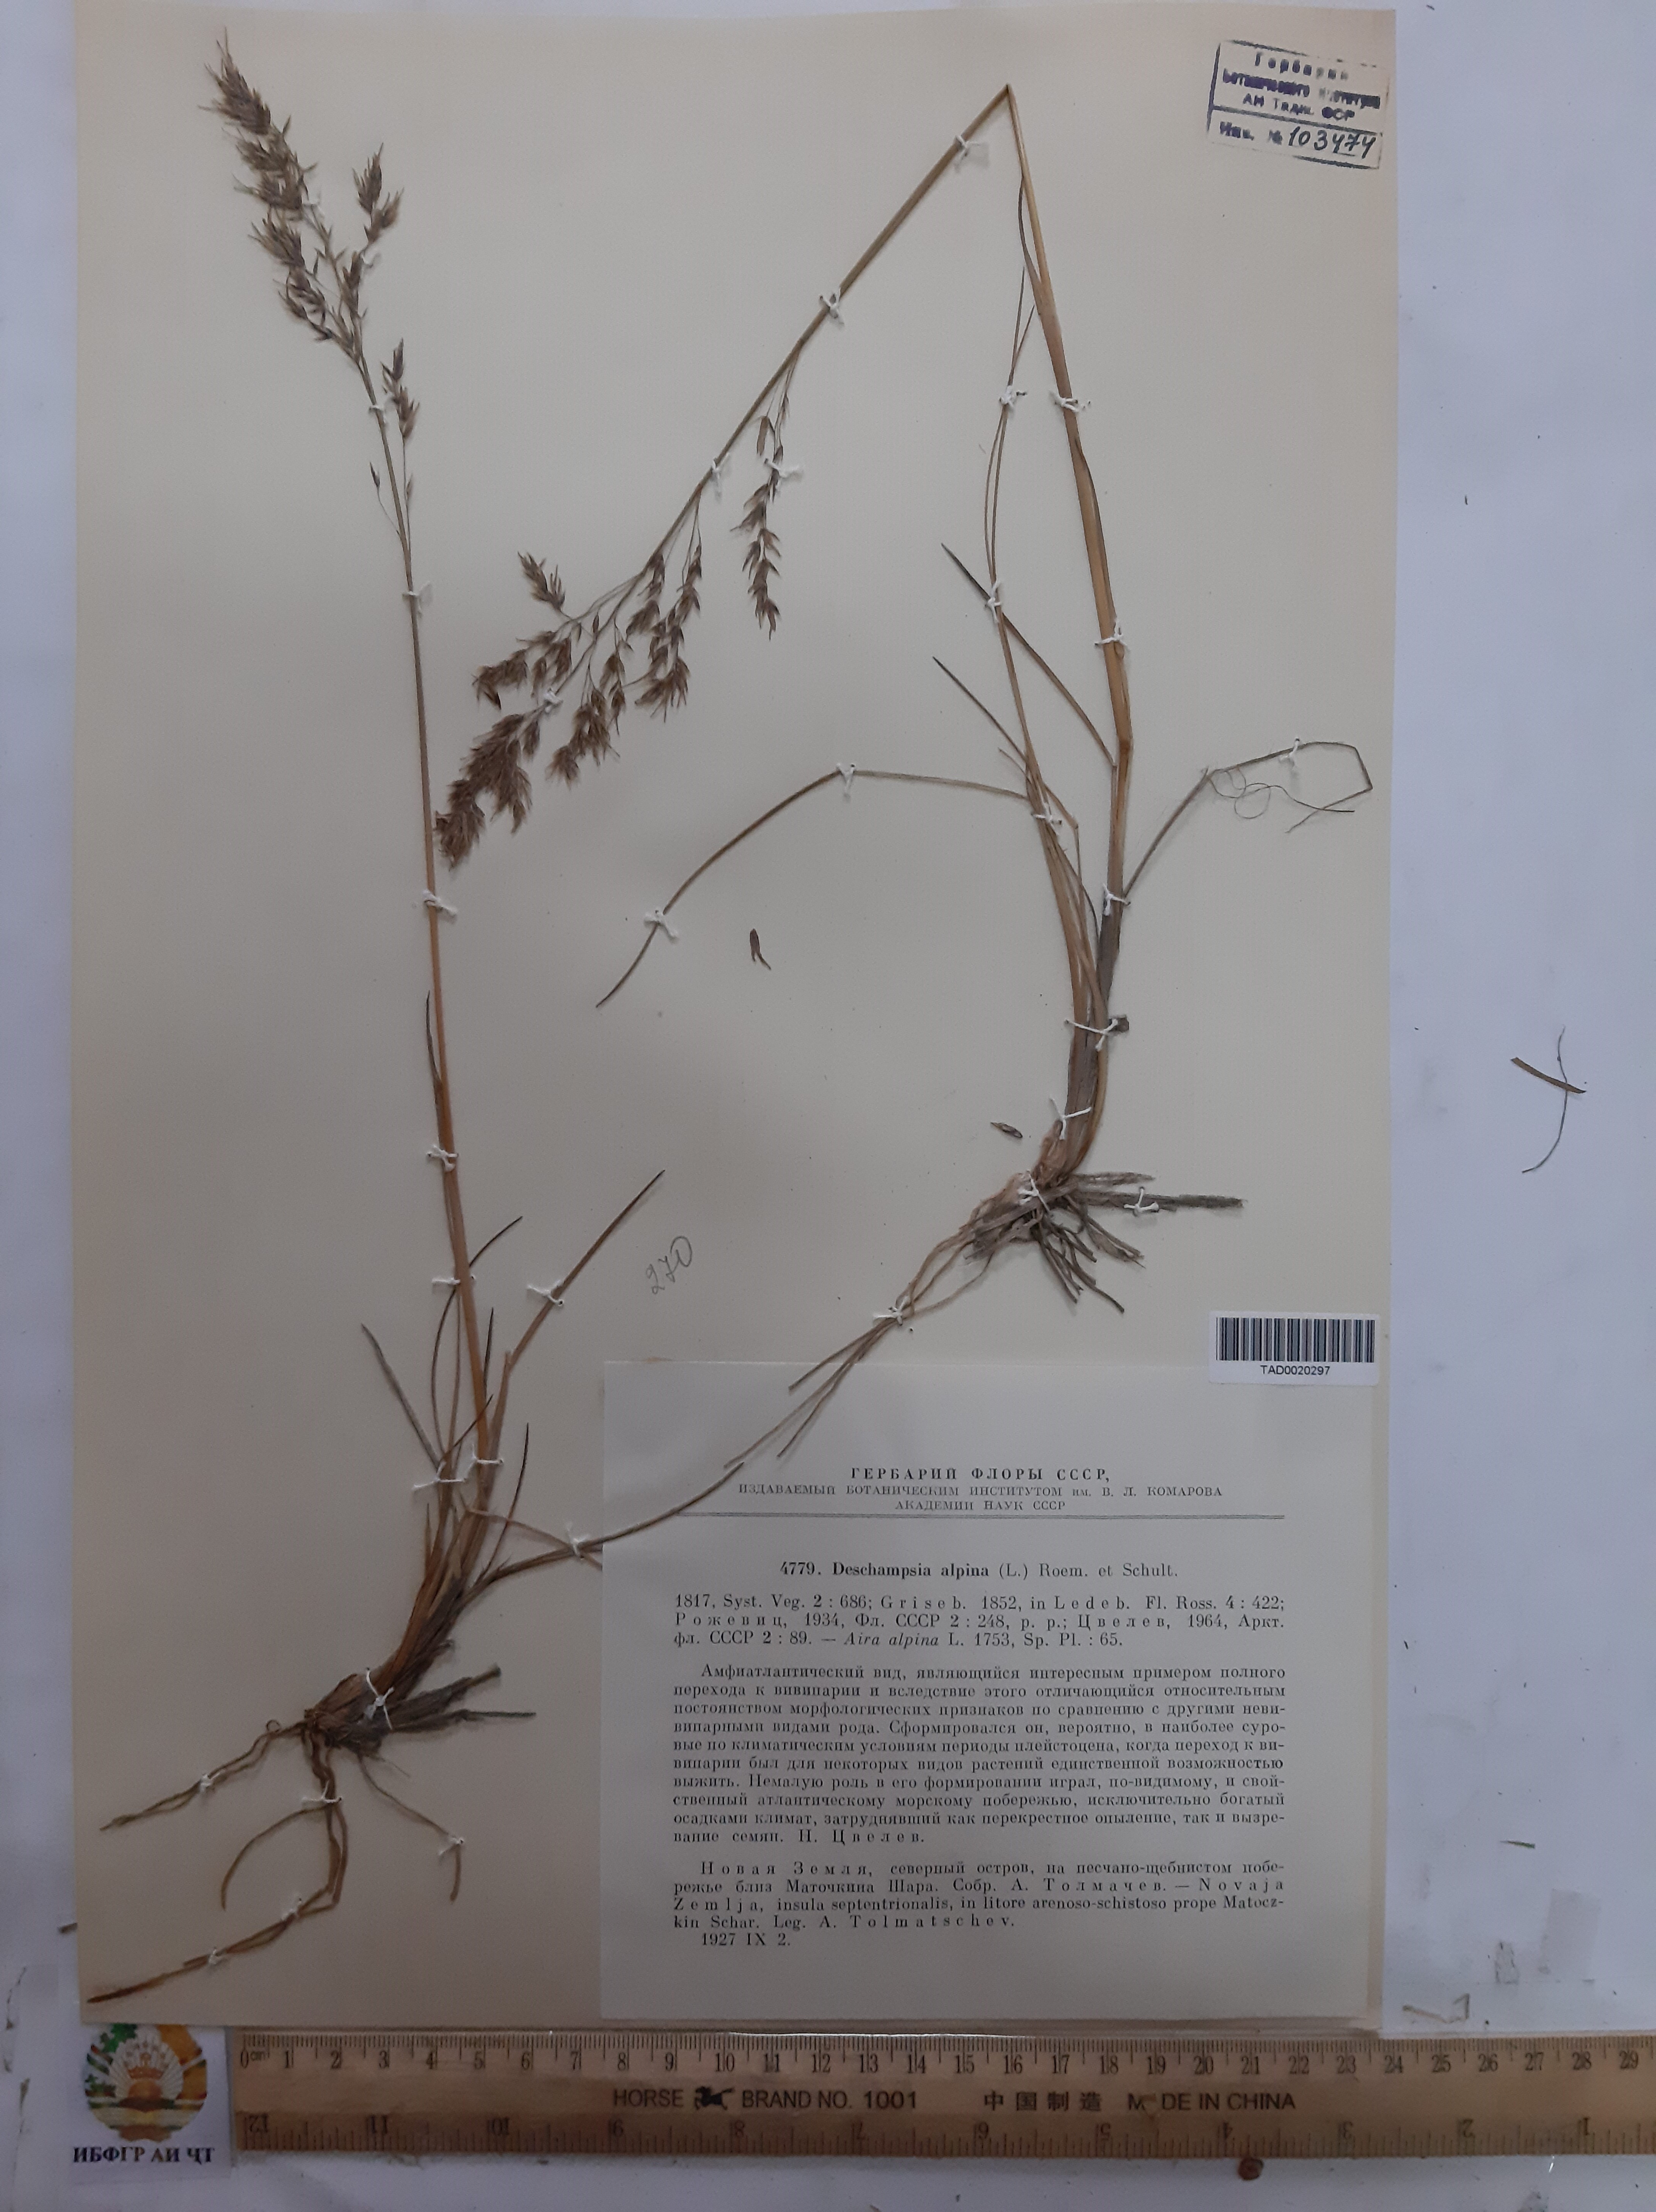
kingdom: Plantae
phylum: Tracheophyta
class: Liliopsida
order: Poales
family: Poaceae
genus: Deschampsia
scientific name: Deschampsia cespitosa
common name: Tufted hair-grass
